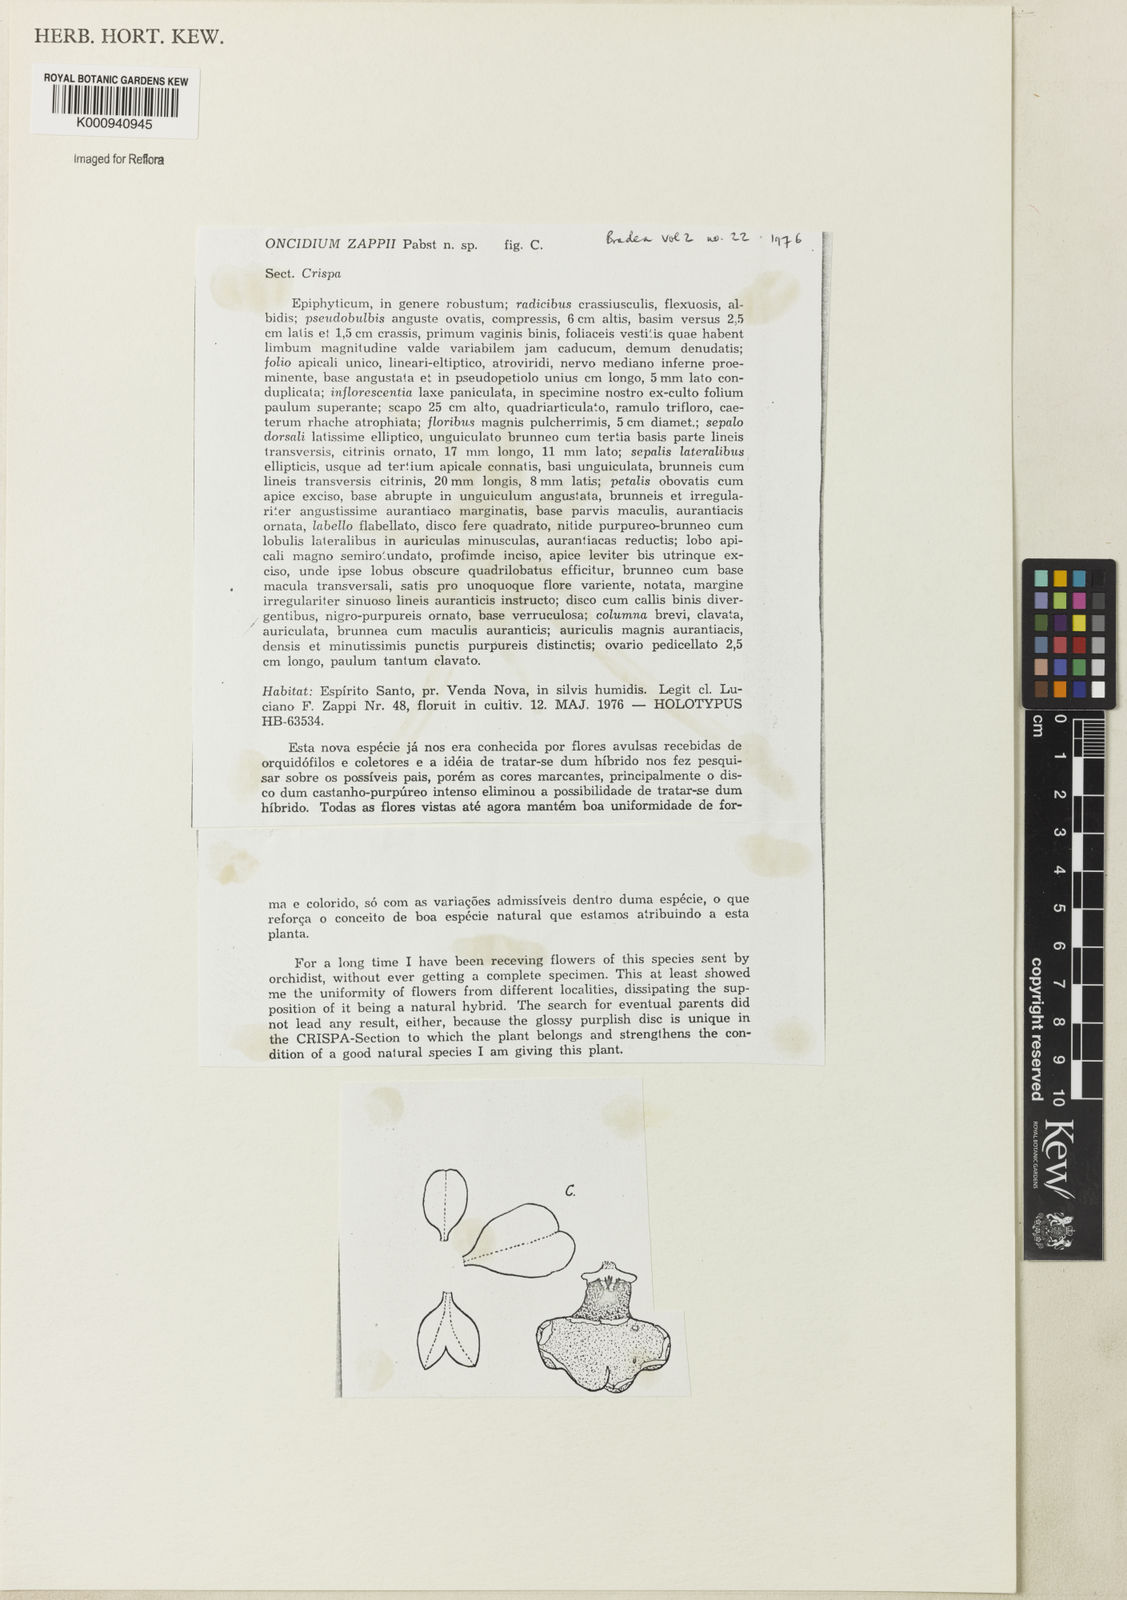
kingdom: Plantae
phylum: Tracheophyta
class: Liliopsida
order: Asparagales
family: Orchidaceae
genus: Gomesa
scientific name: Gomesa novaesae
